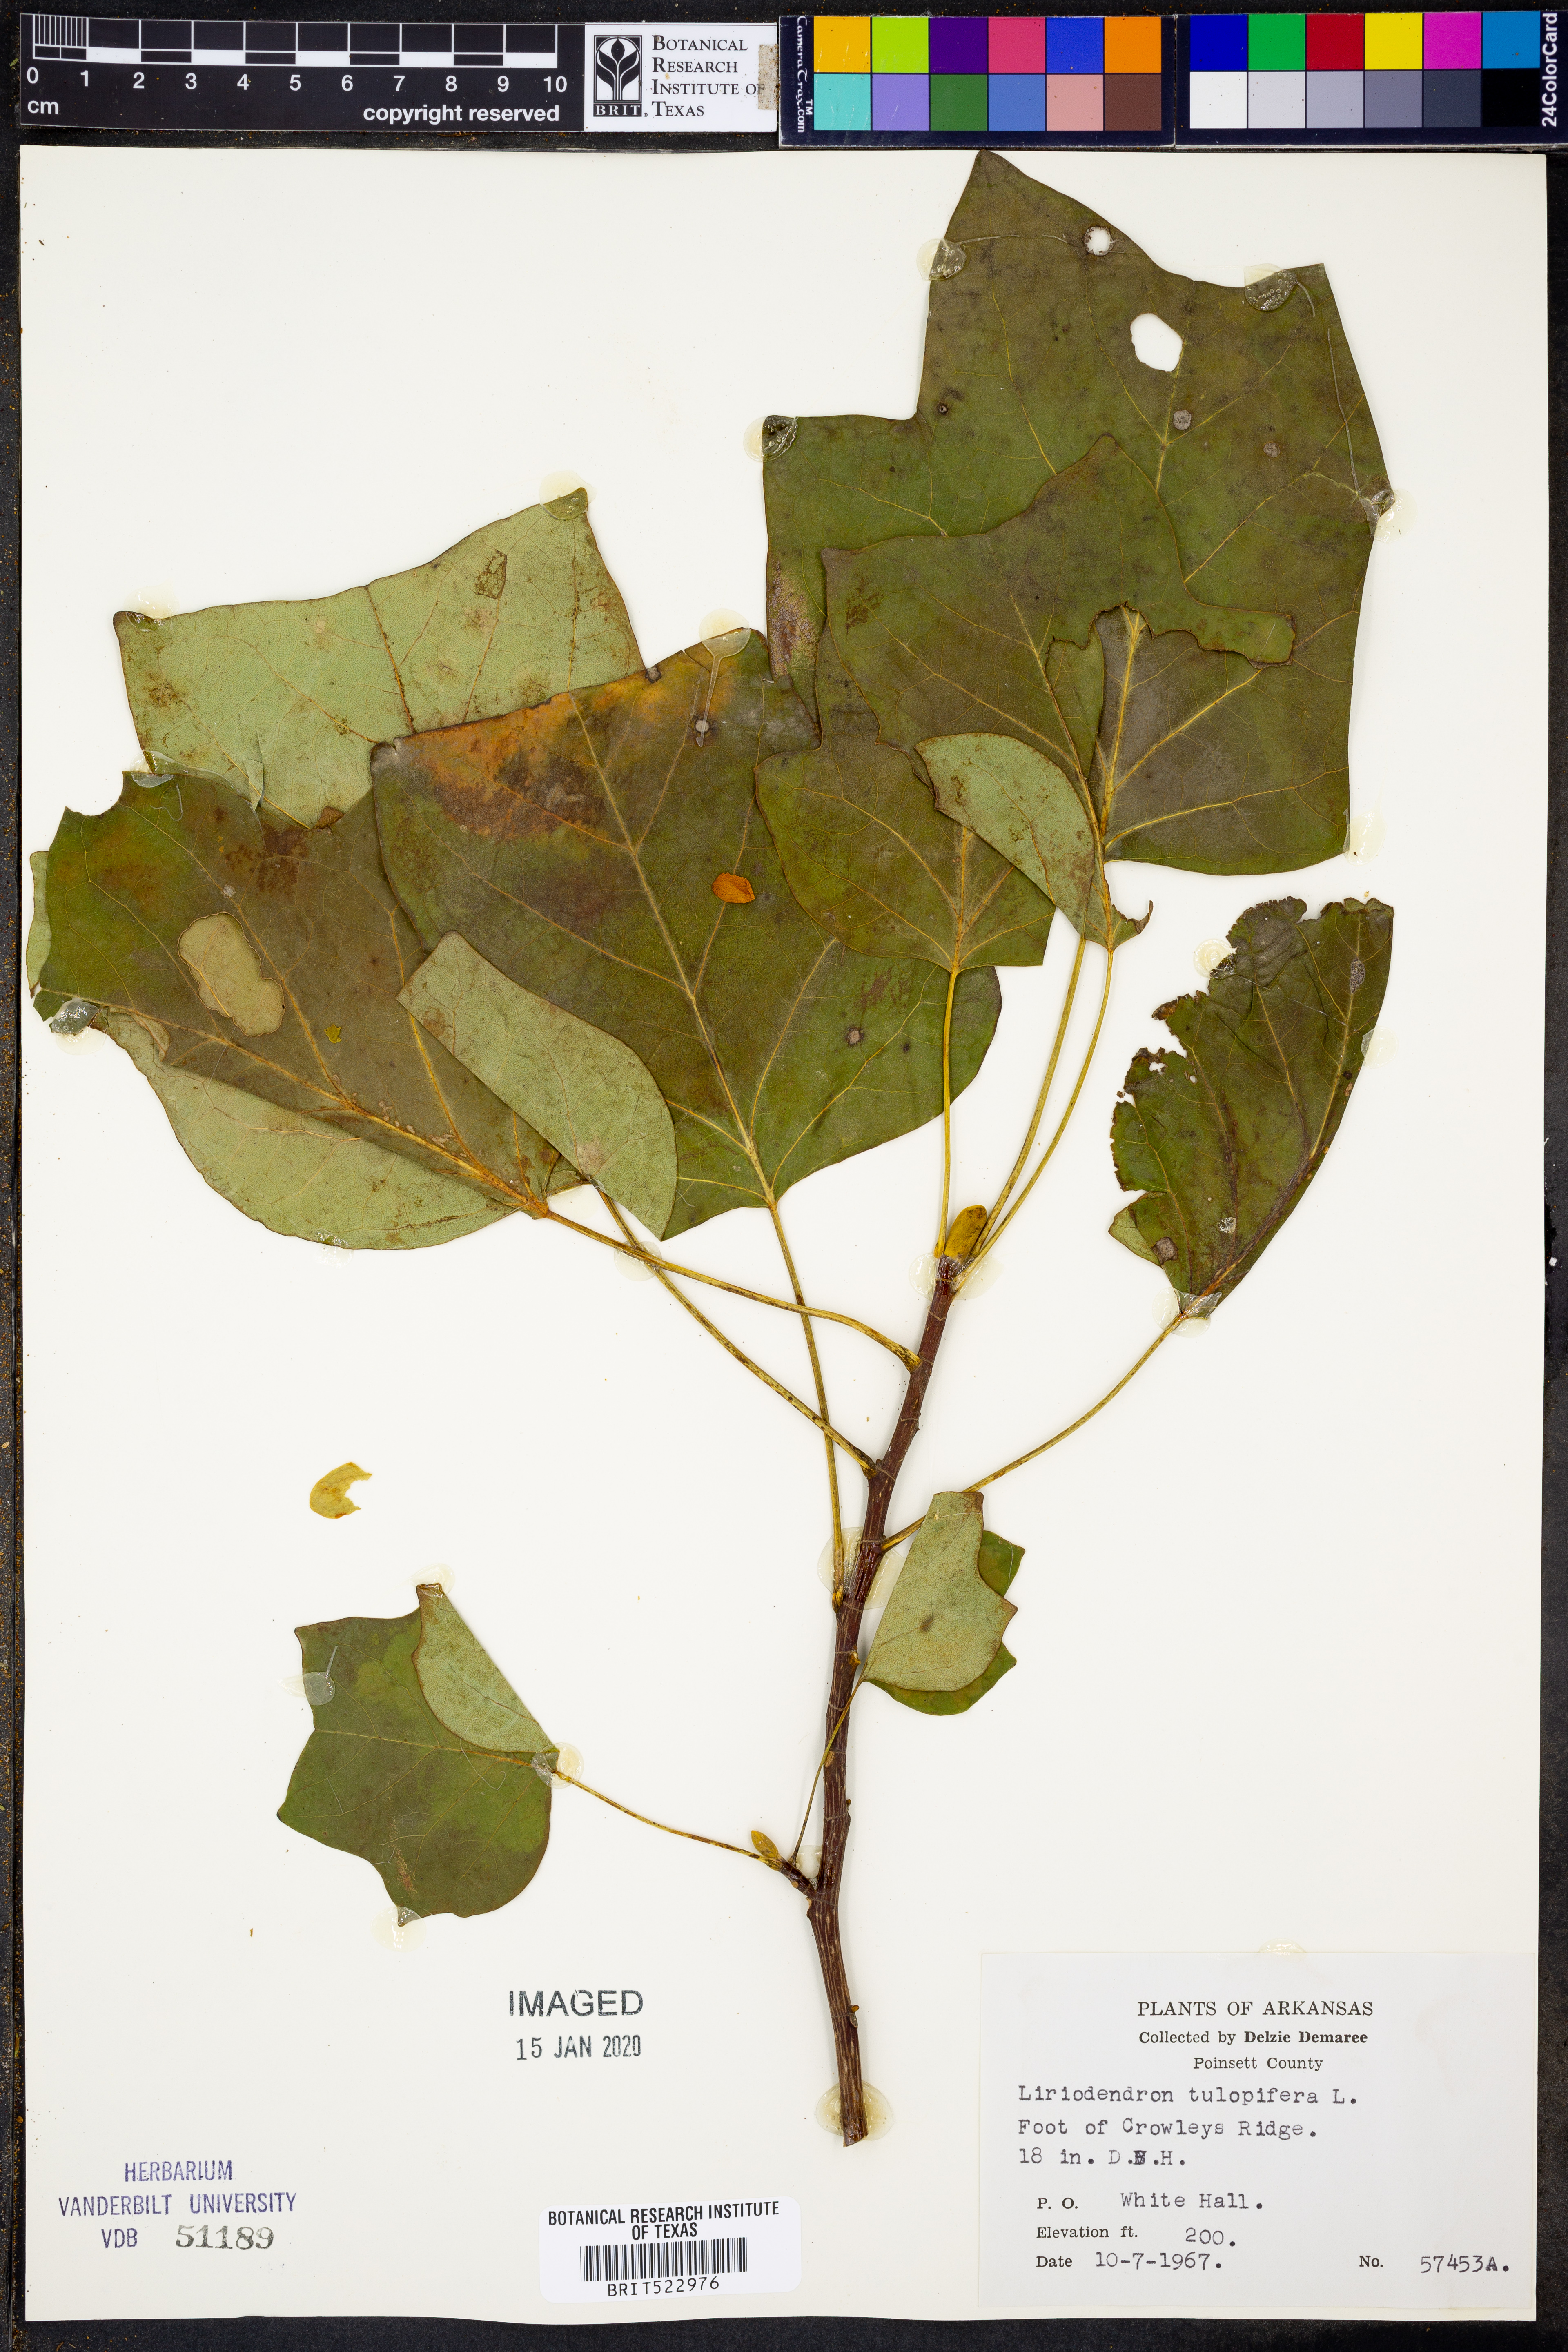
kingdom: Plantae
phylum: Tracheophyta
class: Magnoliopsida
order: Magnoliales
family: Magnoliaceae
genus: Liriodendron
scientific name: Liriodendron tulipifera
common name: Tulip tree
